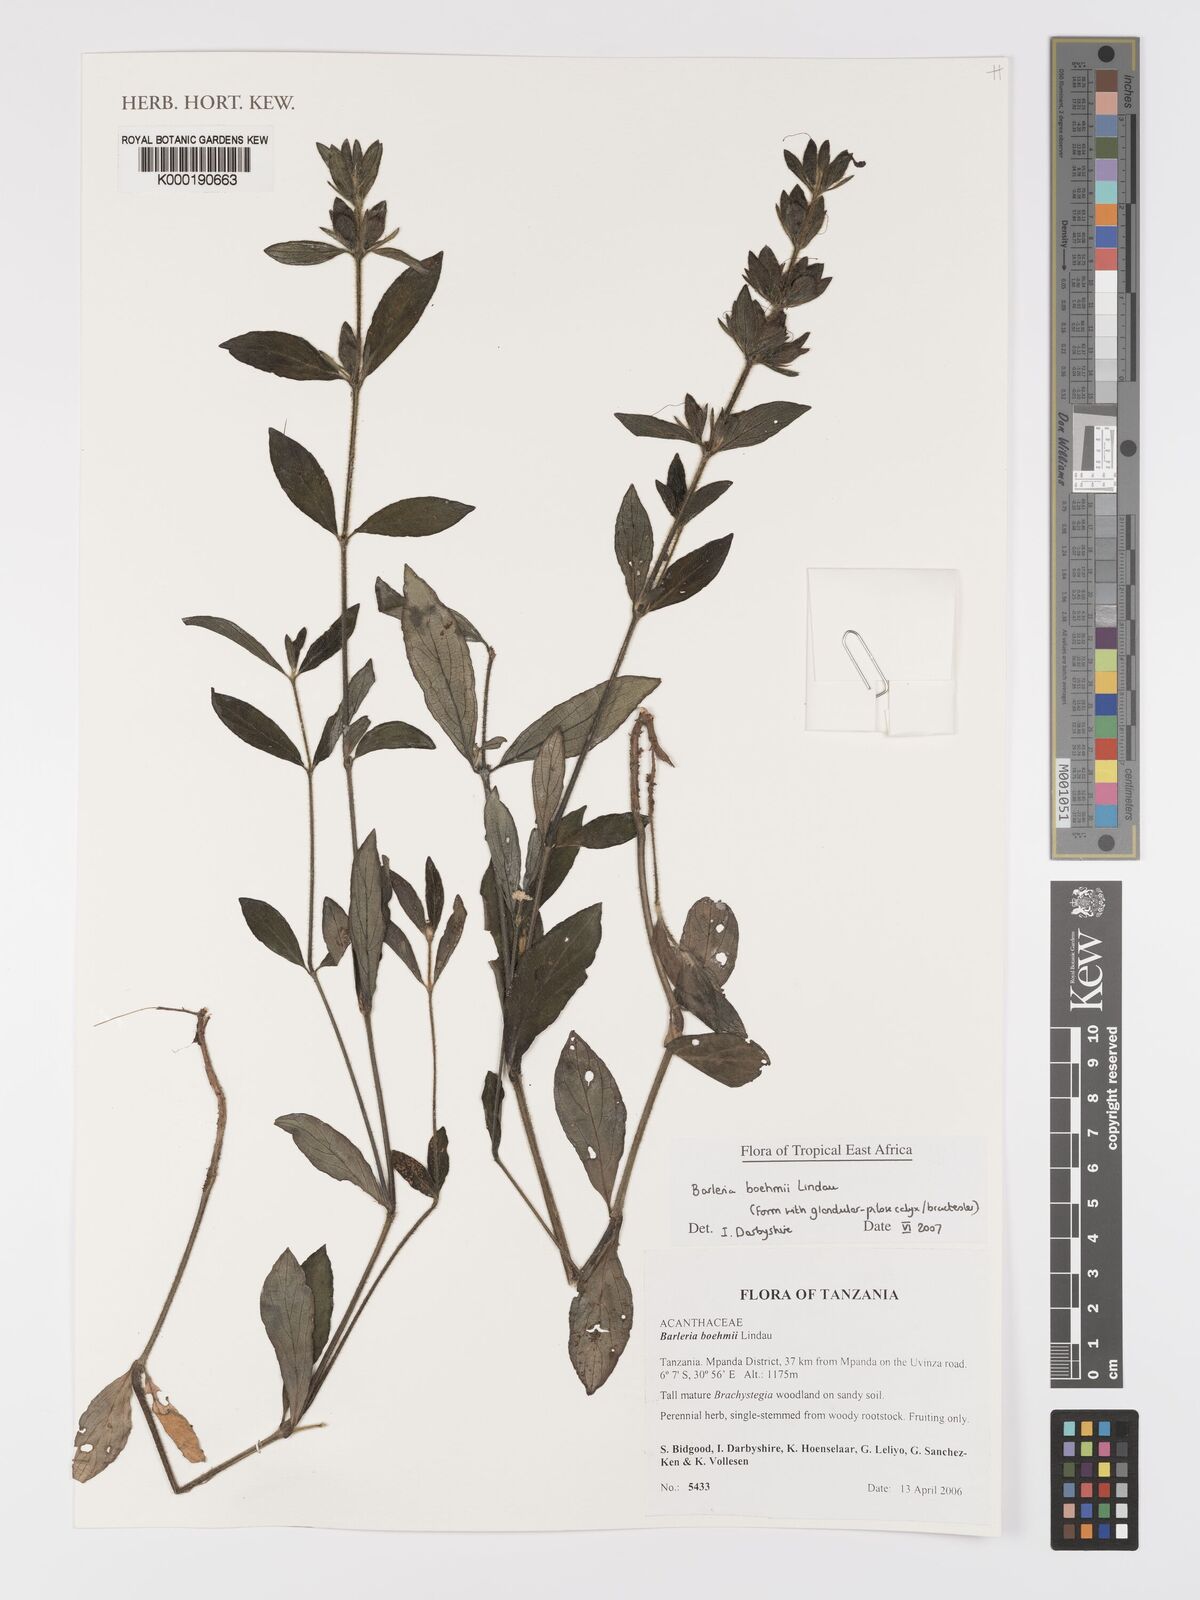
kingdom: Plantae
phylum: Tracheophyta
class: Magnoliopsida
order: Lamiales
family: Acanthaceae
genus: Barleria
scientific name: Barleria boehmii
